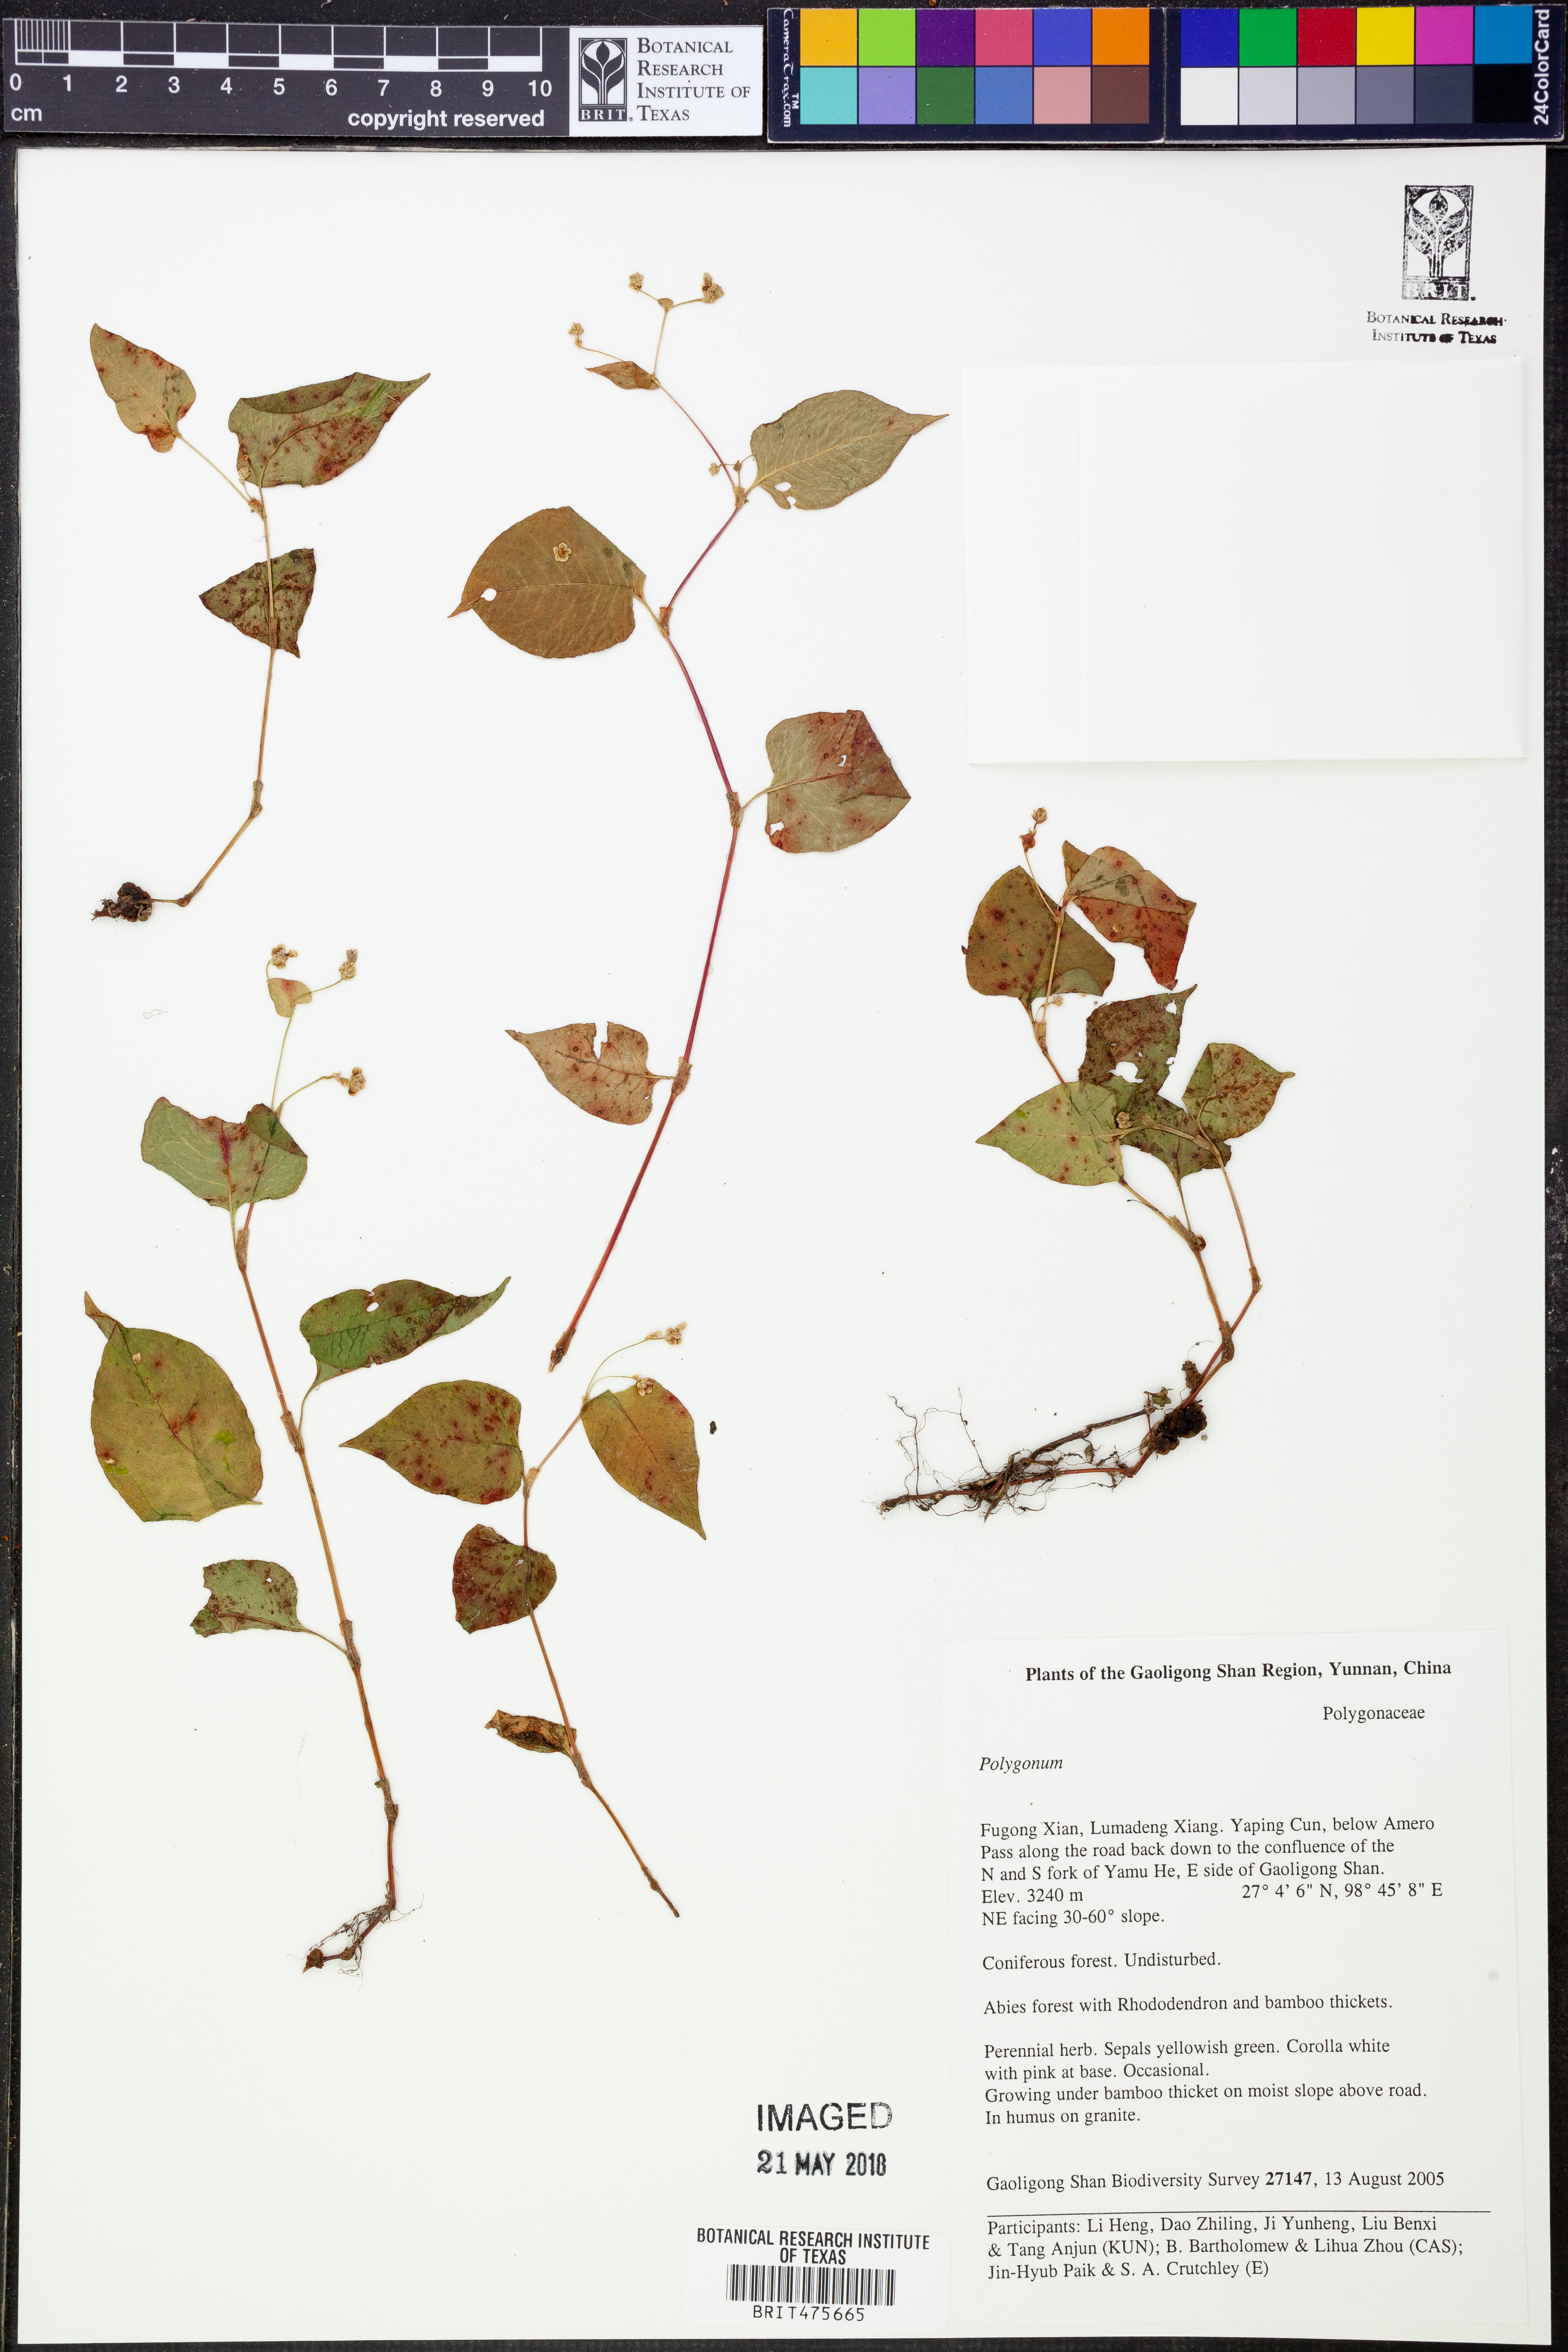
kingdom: Plantae
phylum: Tracheophyta
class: Magnoliopsida
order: Caryophyllales
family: Polygonaceae
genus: Polygonum
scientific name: Polygonum
